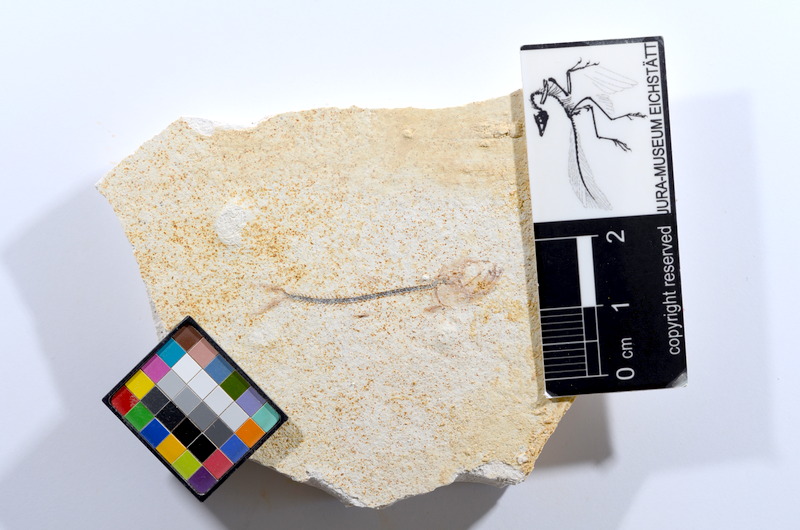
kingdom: Animalia
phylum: Chordata
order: Salmoniformes
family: Orthogonikleithridae
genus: Orthogonikleithrus
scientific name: Orthogonikleithrus hoelli
